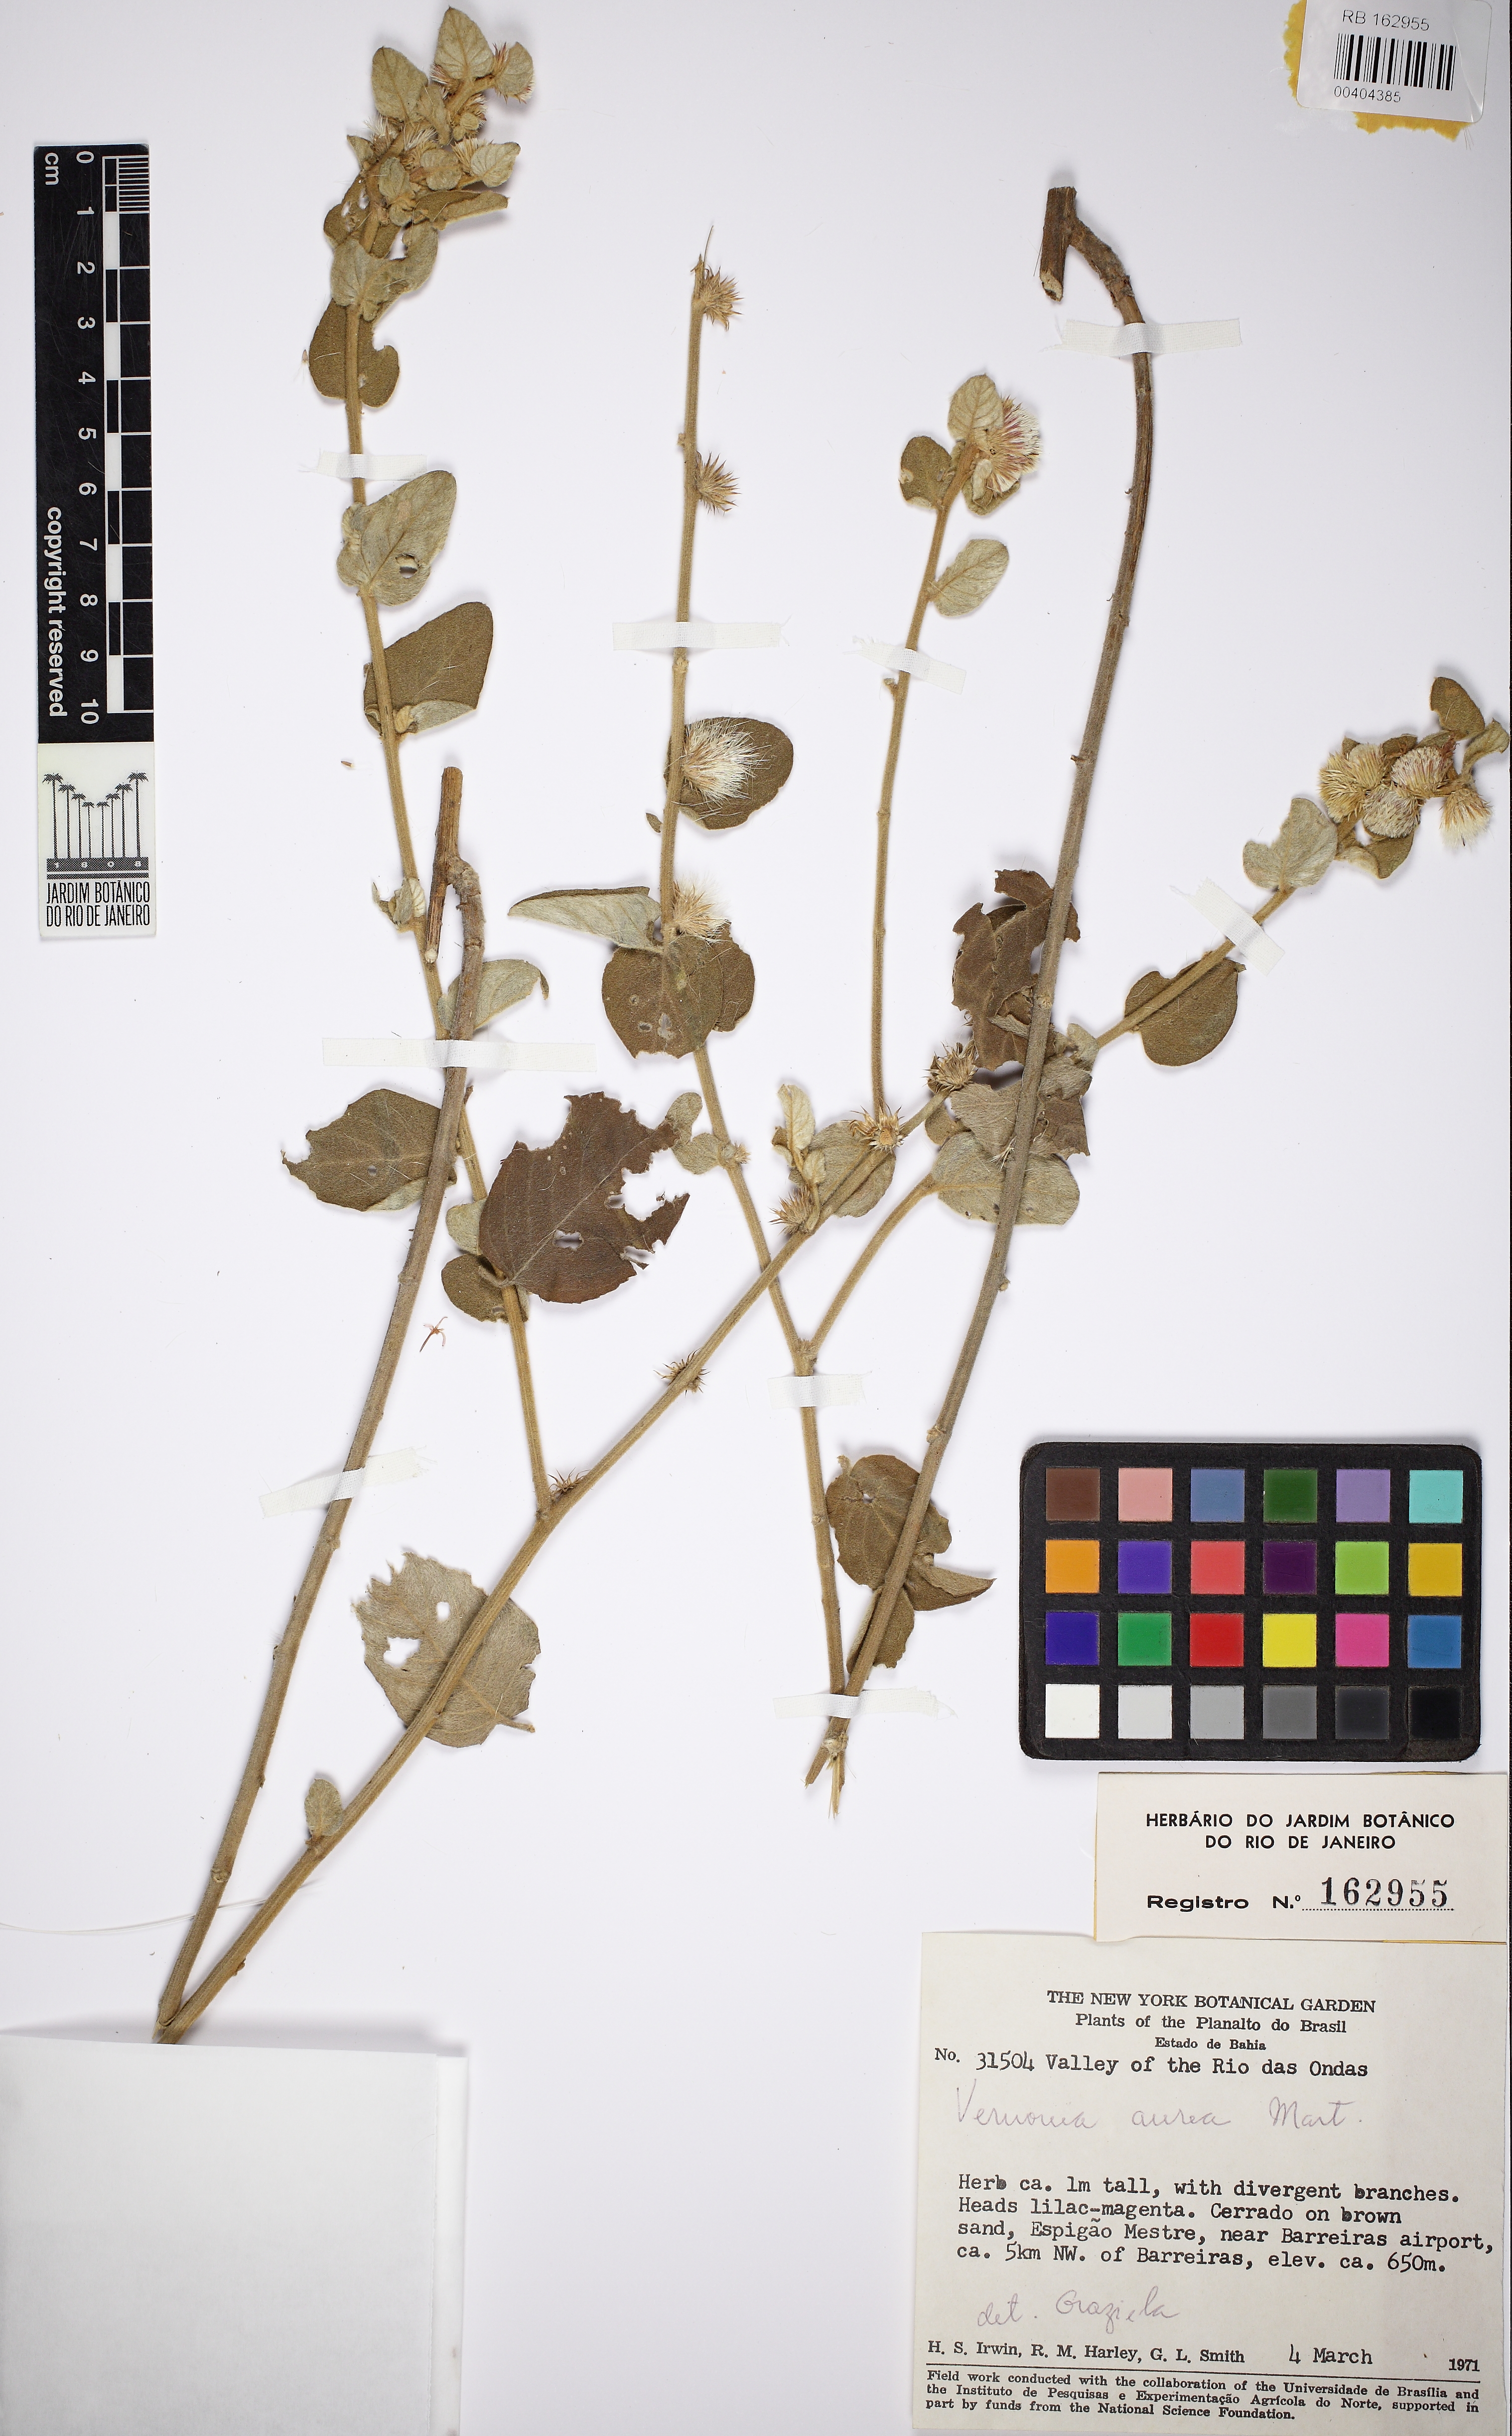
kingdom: Plantae
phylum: Tracheophyta
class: Magnoliopsida
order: Asterales
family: Asteraceae
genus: Lepidaploa
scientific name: Lepidaploa aurea
